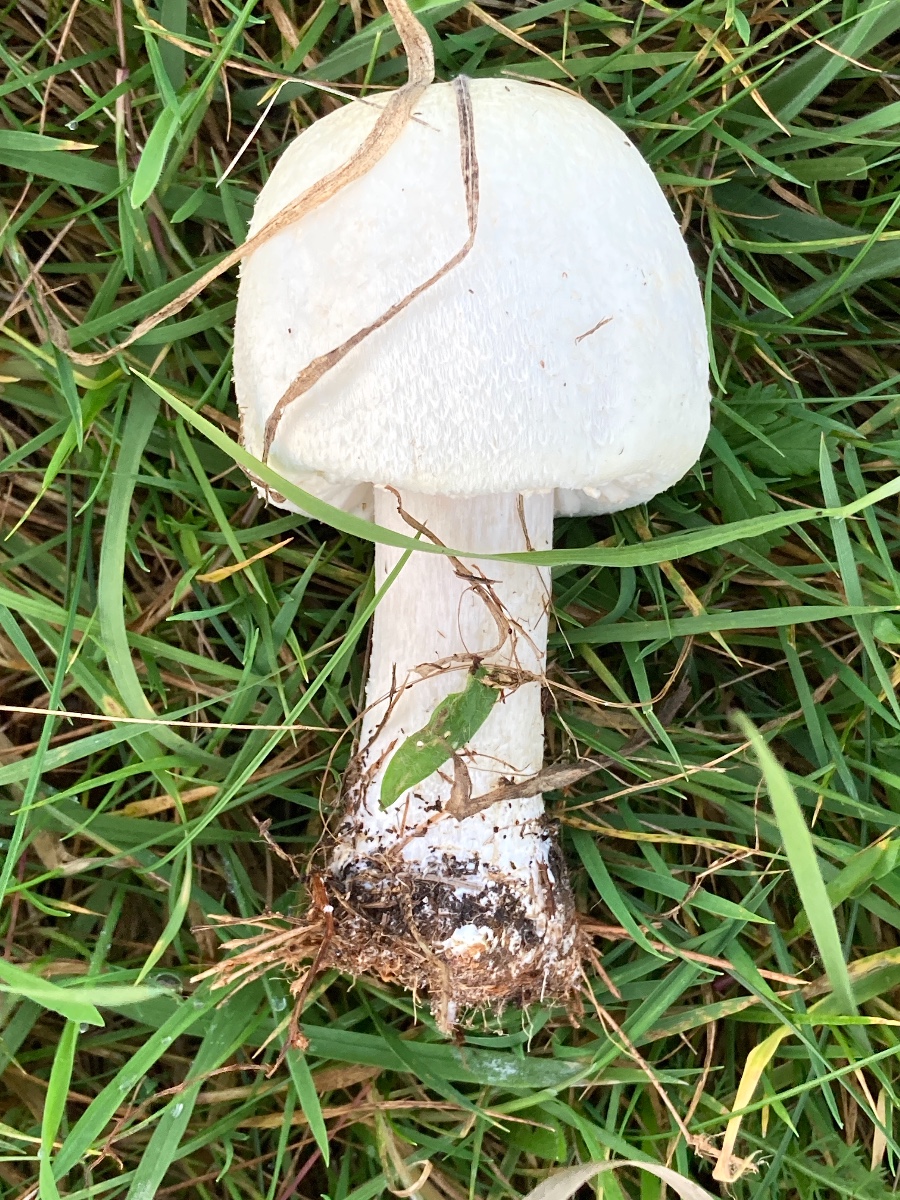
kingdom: Fungi
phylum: Basidiomycota
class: Agaricomycetes
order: Agaricales
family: Agaricaceae
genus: Agaricus
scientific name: Agaricus arvensis
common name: ager-champignon
